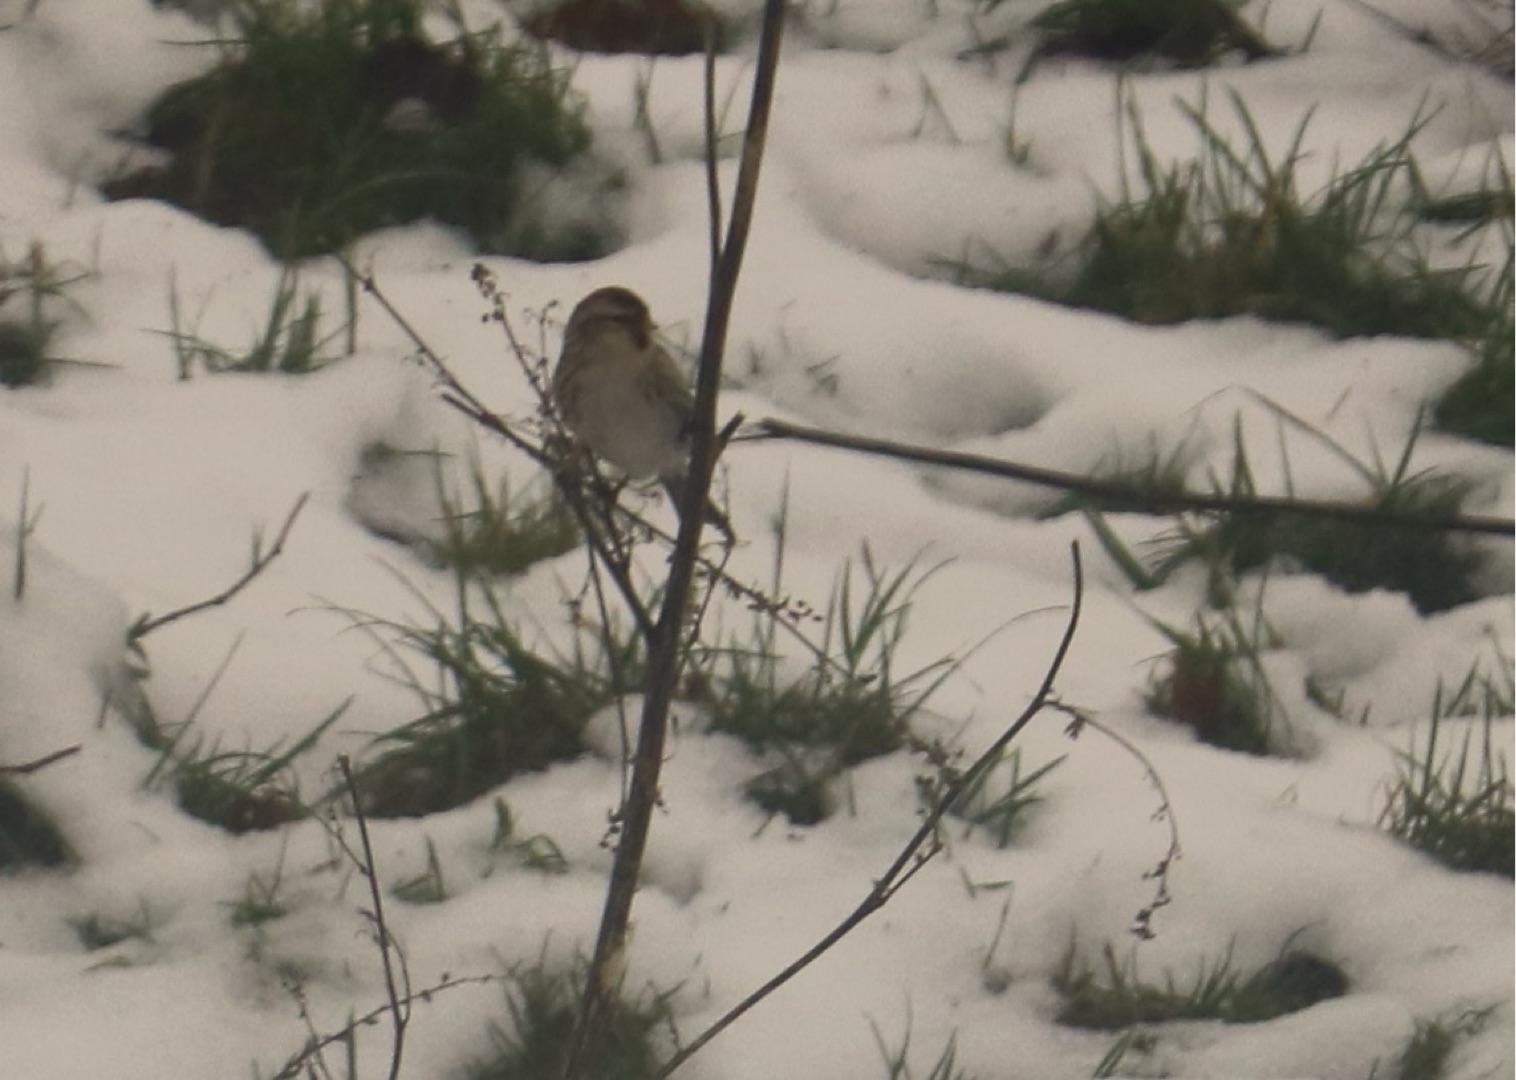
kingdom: Animalia
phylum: Chordata
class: Aves
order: Passeriformes
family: Fringillidae
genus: Acanthis
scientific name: Acanthis flammea
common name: Nordlig gråsisken
